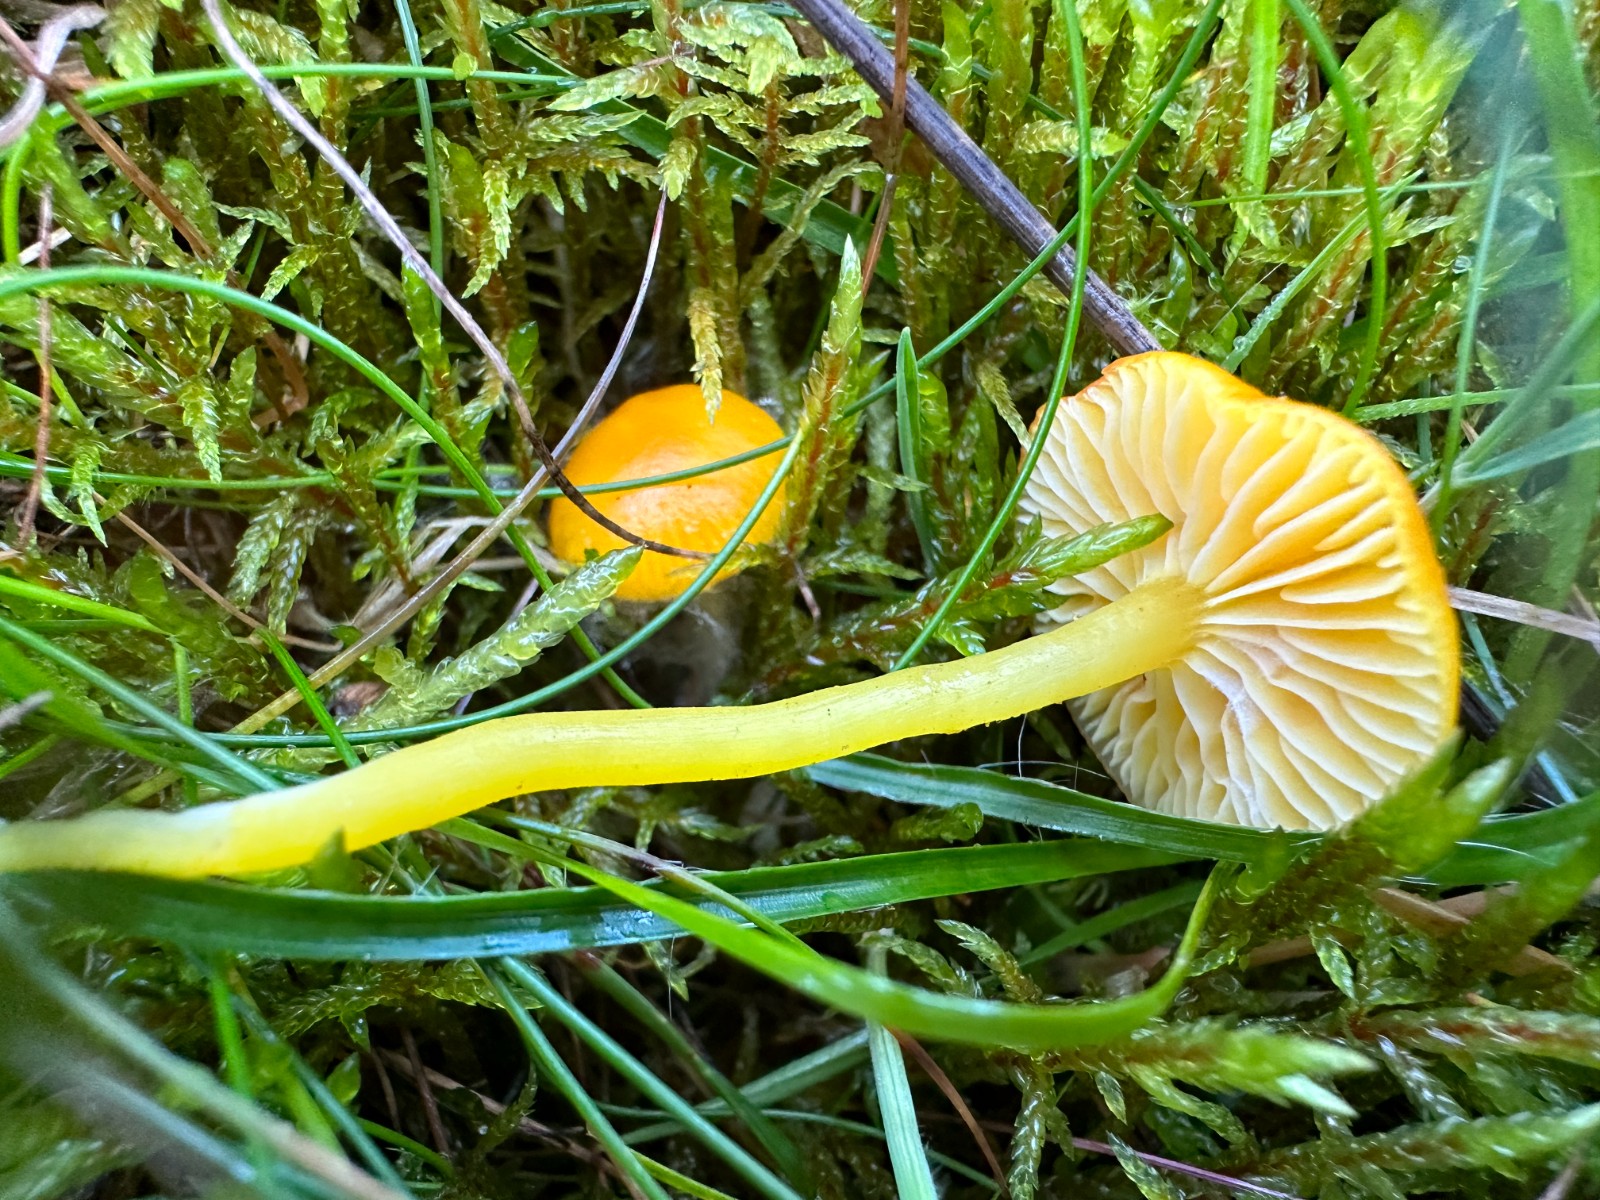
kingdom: Fungi
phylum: Basidiomycota
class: Agaricomycetes
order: Agaricales
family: Hygrophoraceae
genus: Hygrocybe
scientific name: Hygrocybe ceracea
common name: voksgul vokshat
